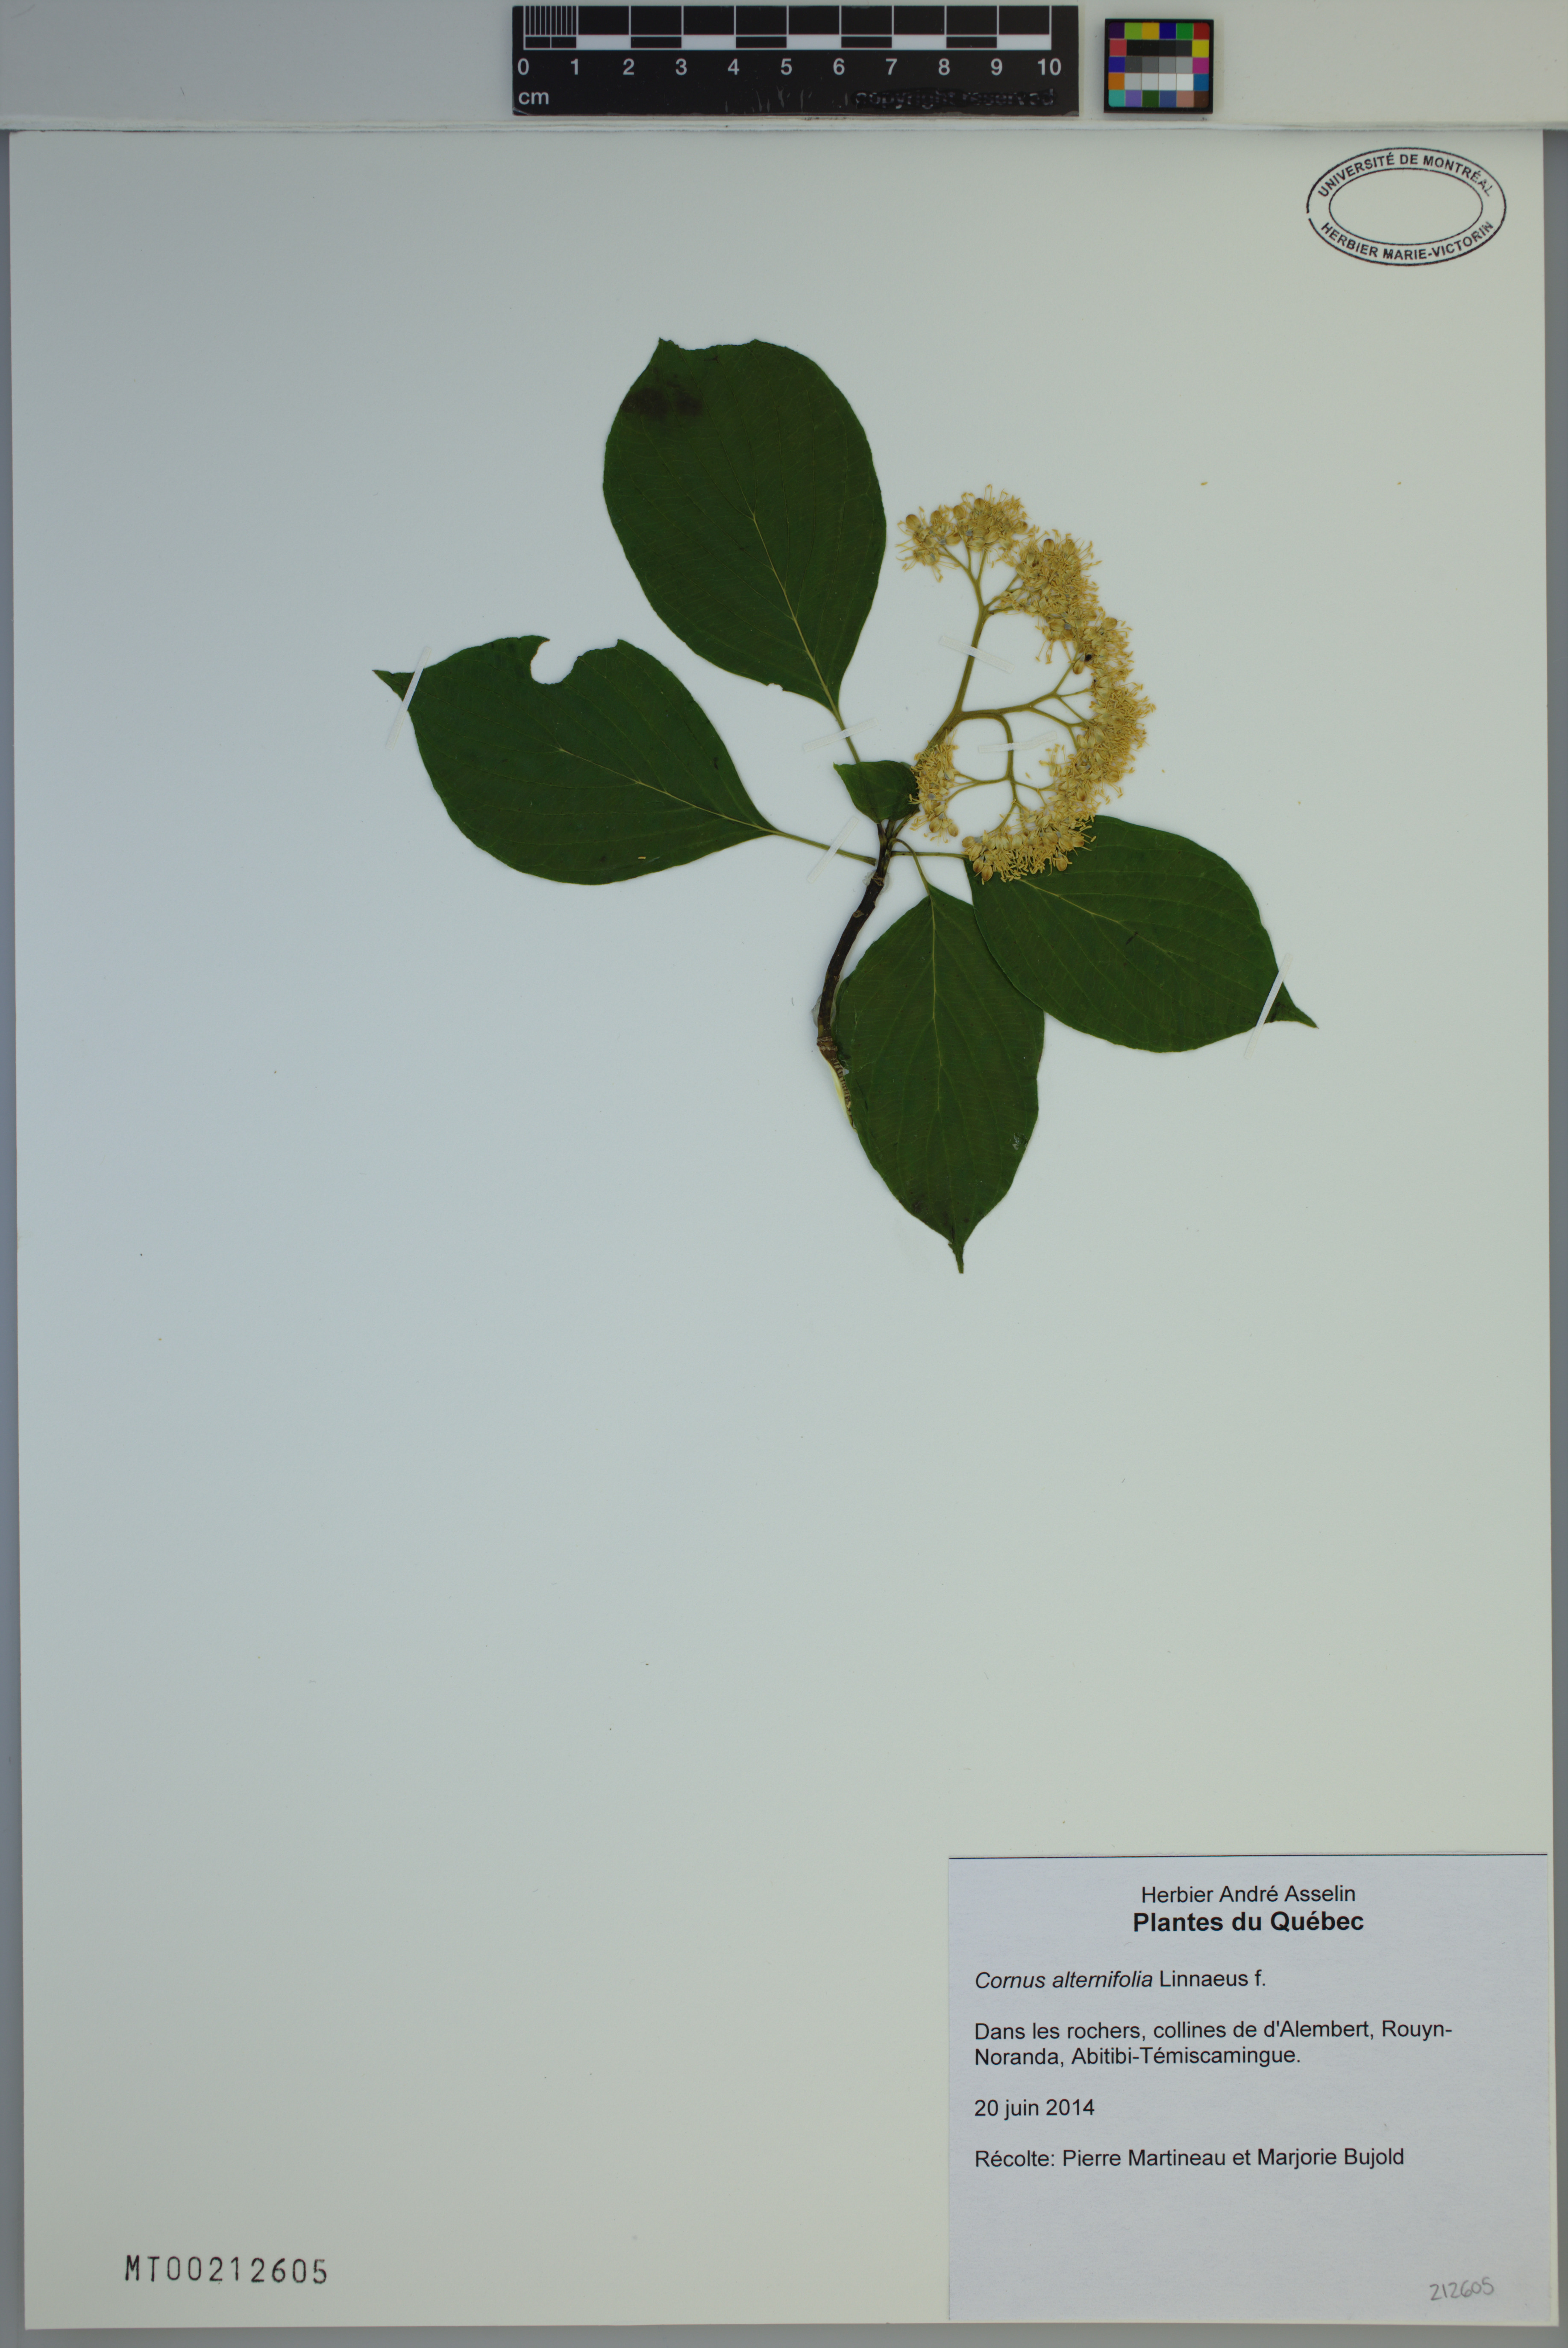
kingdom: Plantae
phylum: Tracheophyta
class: Magnoliopsida
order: Cornales
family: Cornaceae
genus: Cornus
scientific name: Cornus alternifolia
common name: Pagoda dogwood
